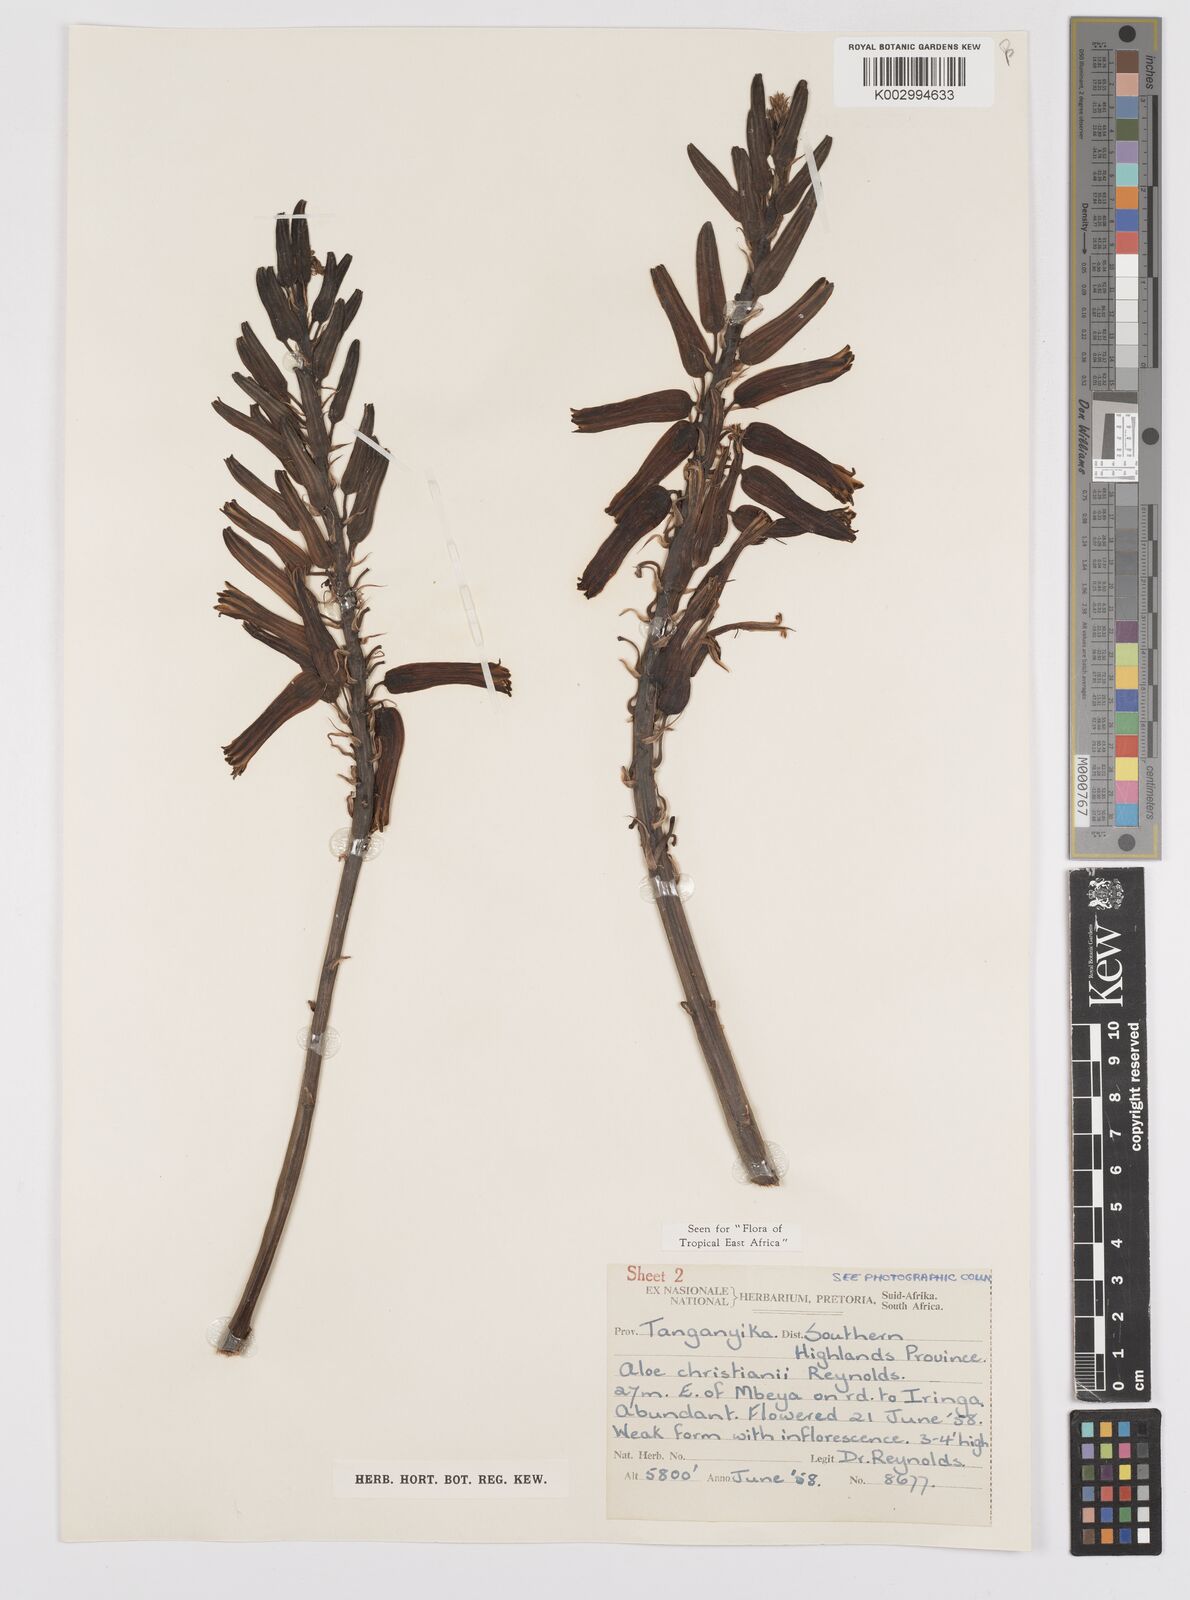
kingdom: Plantae
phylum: Tracheophyta
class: Liliopsida
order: Asparagales
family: Asphodelaceae
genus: Aloe
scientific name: Aloe christianii
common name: Basil christian's aloe
